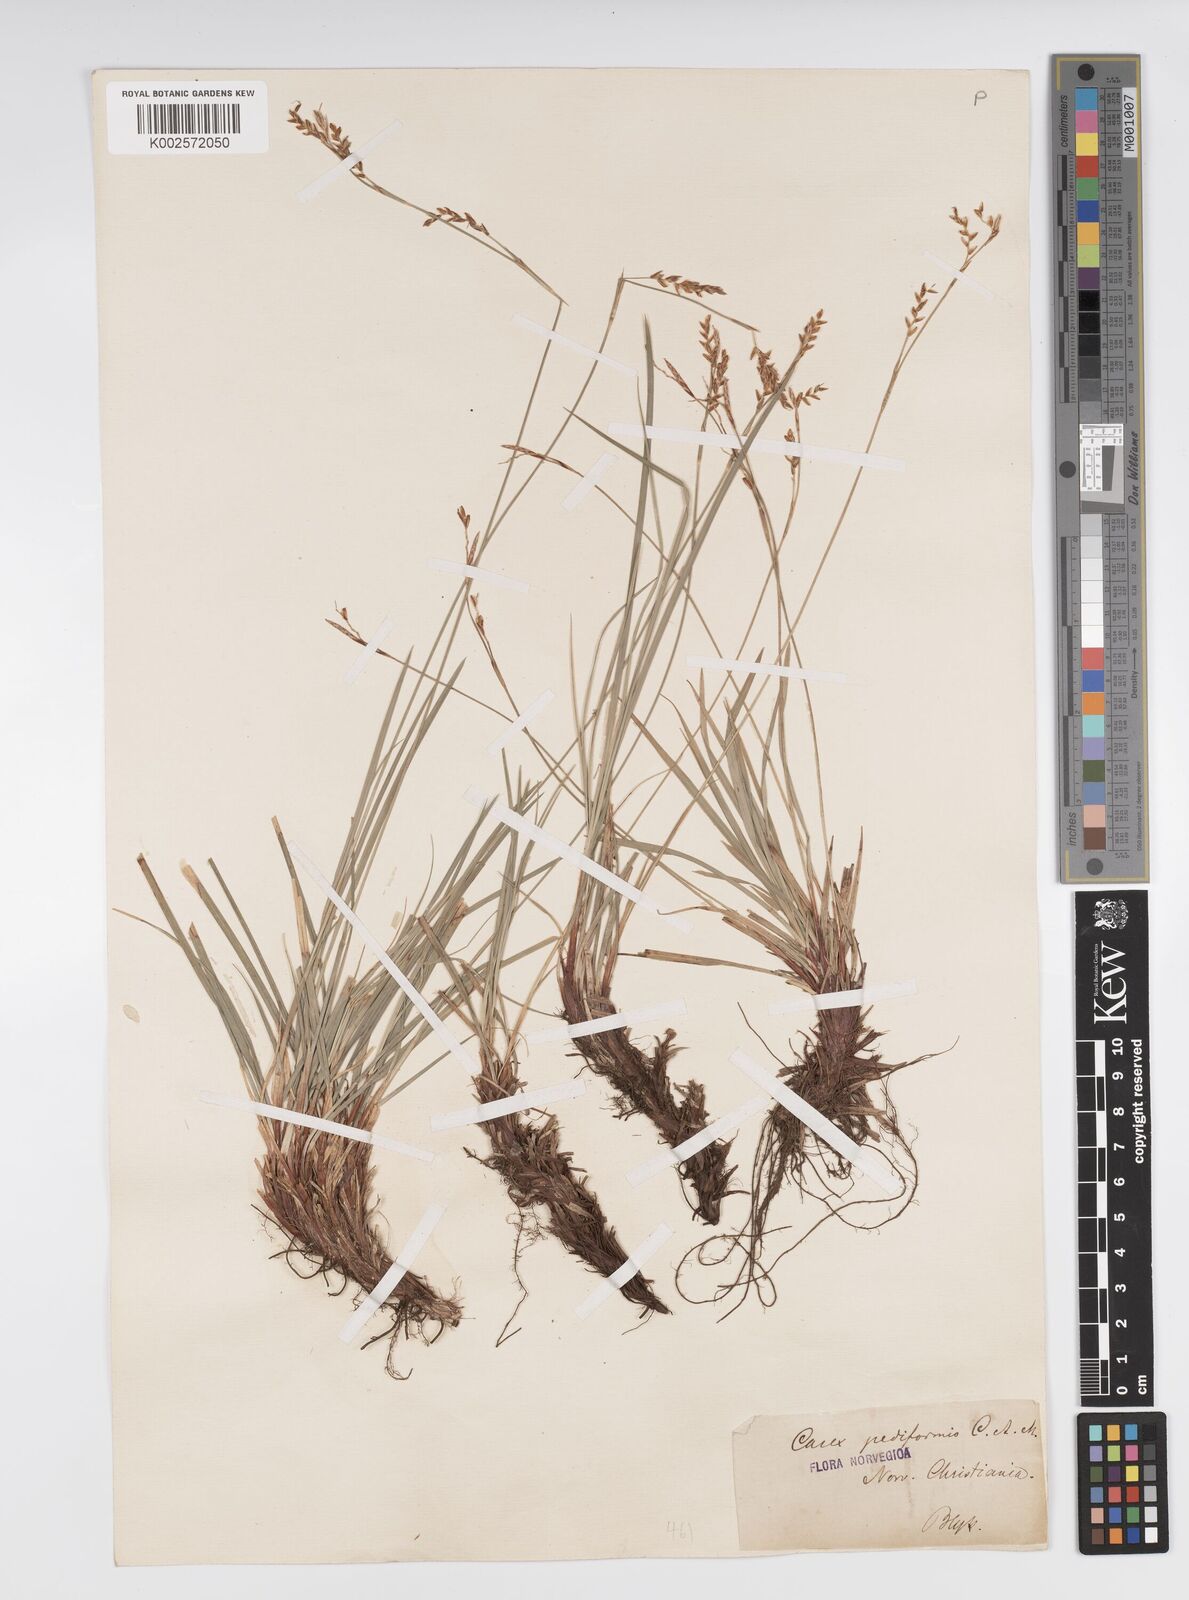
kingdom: Plantae
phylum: Tracheophyta
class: Liliopsida
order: Poales
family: Cyperaceae
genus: Carex
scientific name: Carex pediformis
